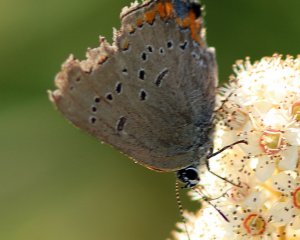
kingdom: Animalia
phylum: Arthropoda
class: Insecta
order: Lepidoptera
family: Lycaenidae
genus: Strymon
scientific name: Strymon acadica
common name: Acadian Hairstreak
